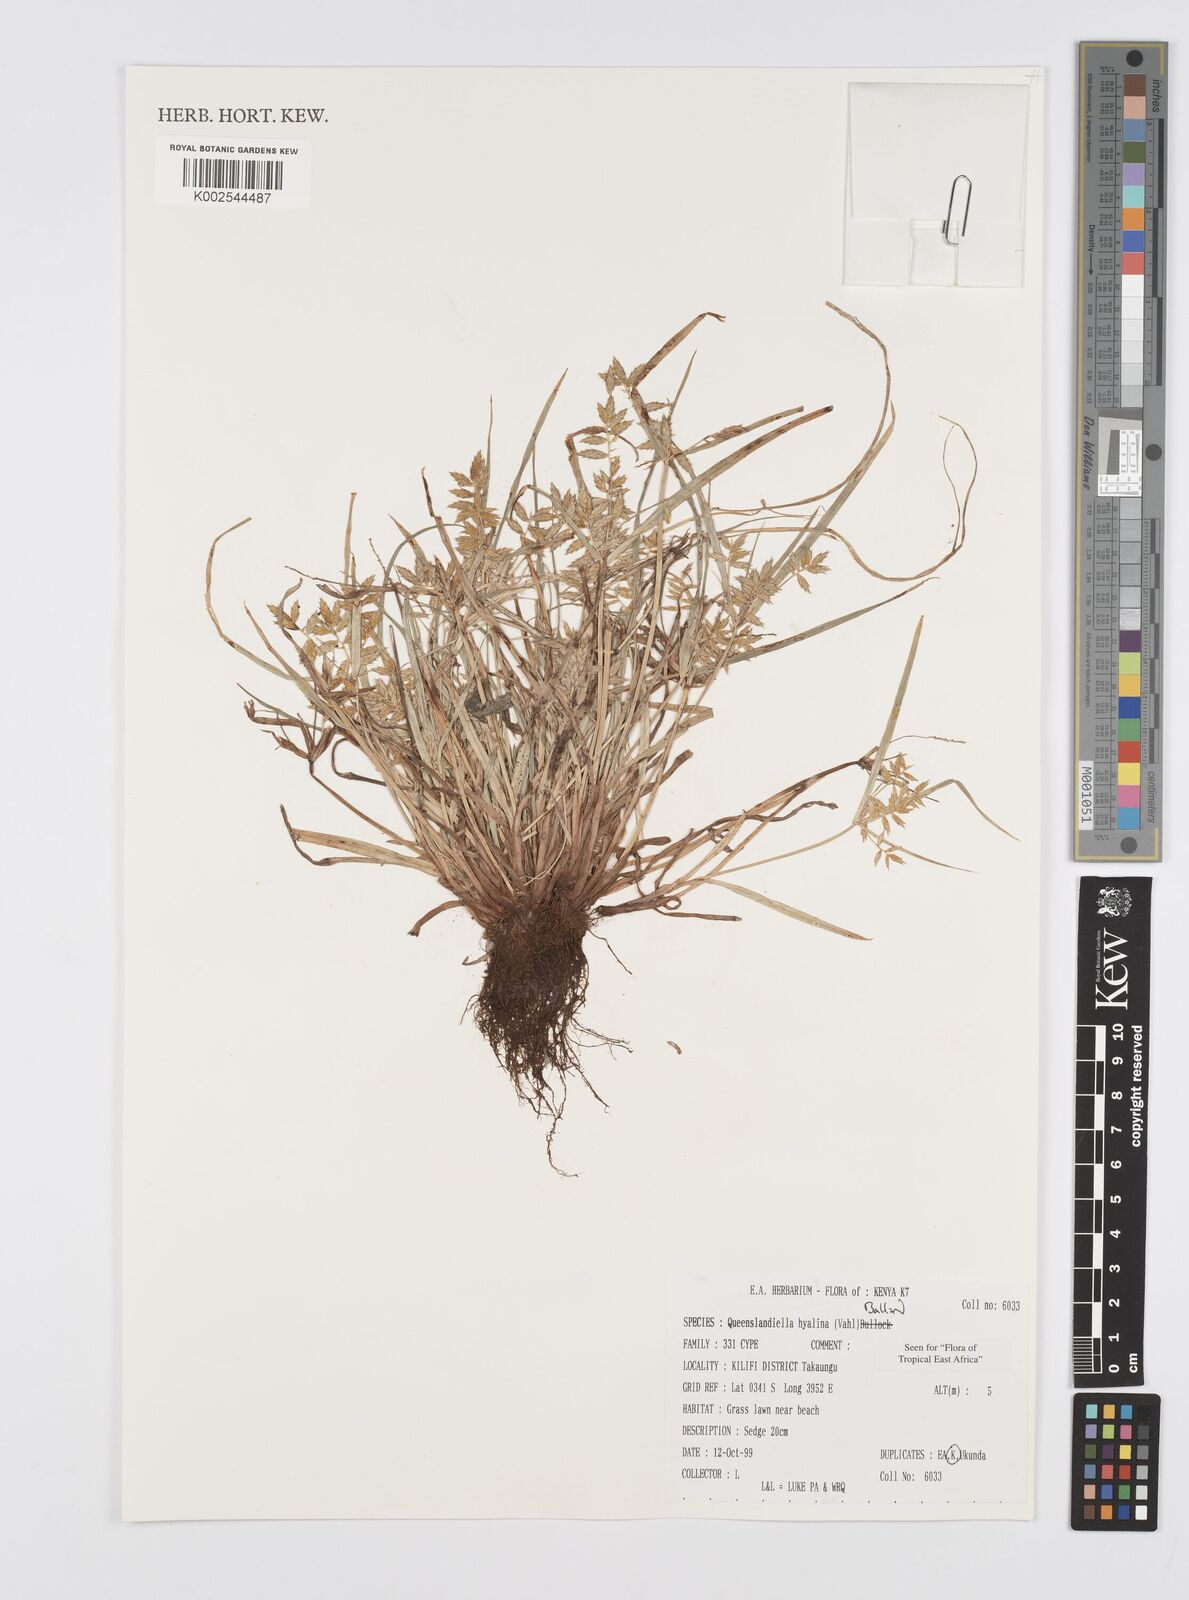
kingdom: Plantae
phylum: Tracheophyta
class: Liliopsida
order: Poales
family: Cyperaceae
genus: Cyperus
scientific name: Cyperus hyalinus
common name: Queensland sedge
